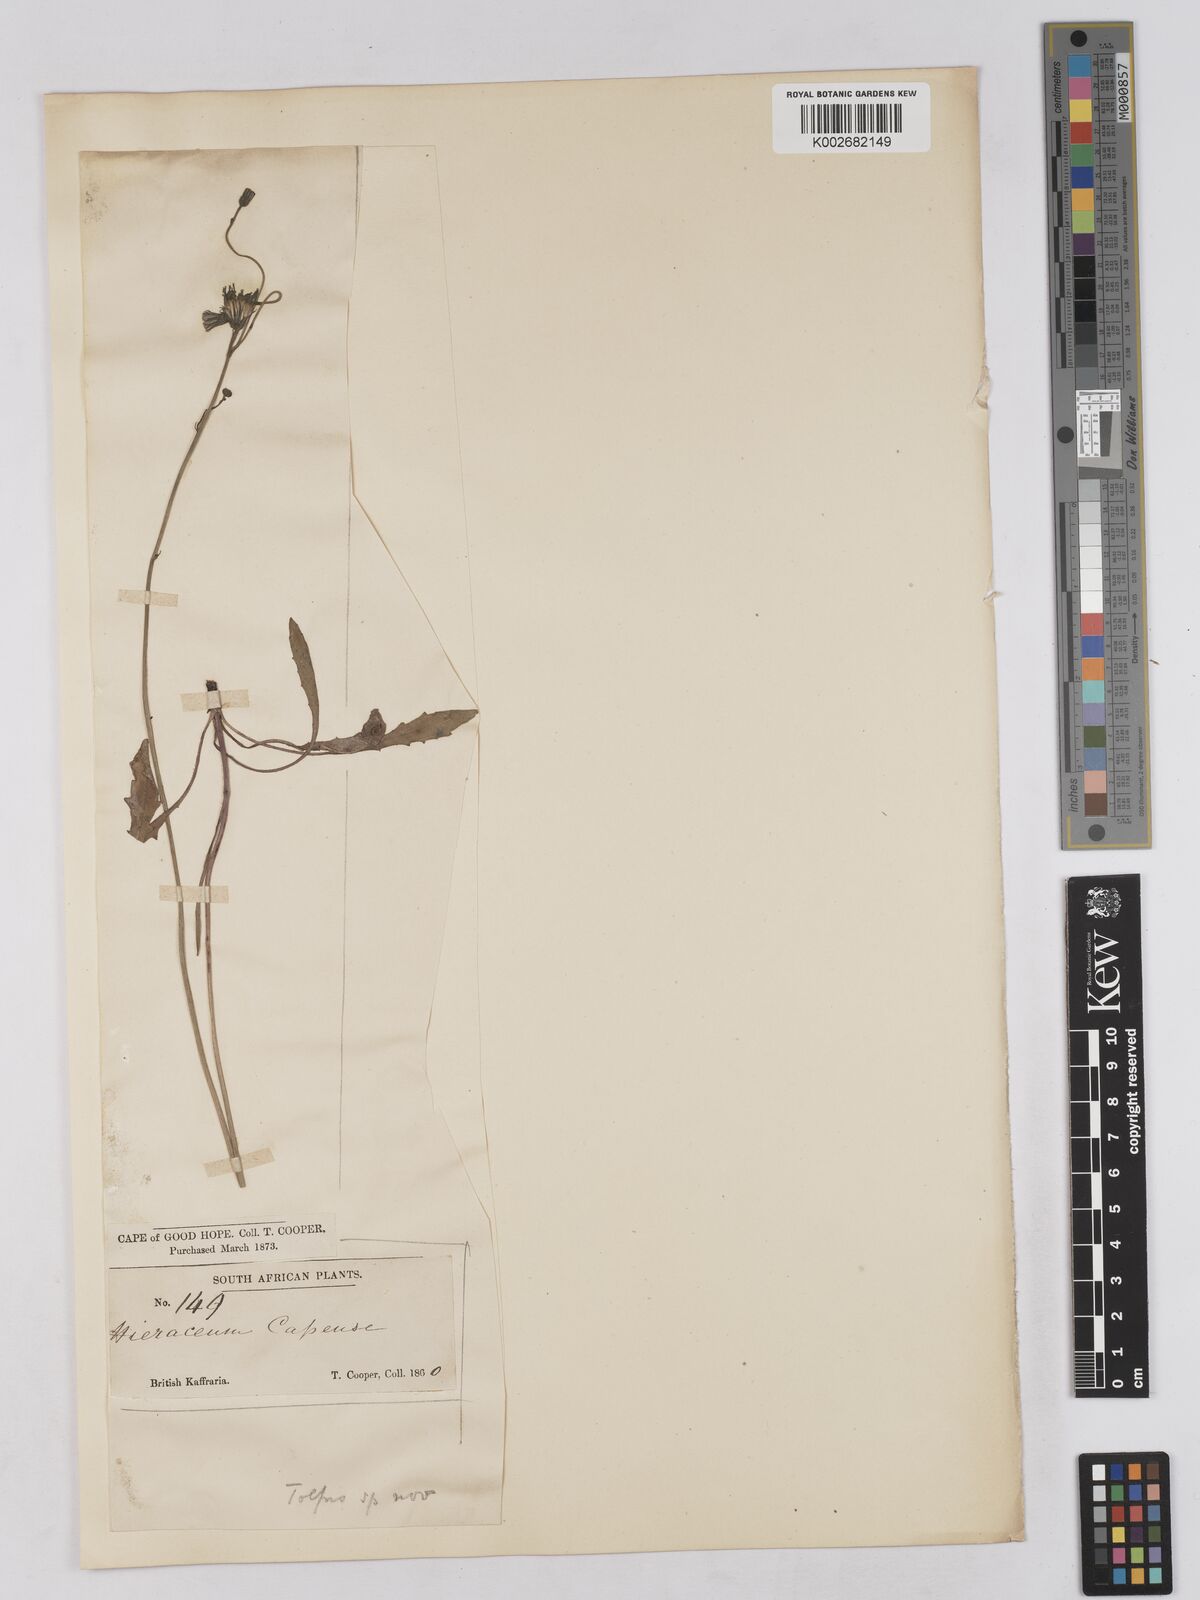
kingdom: Plantae
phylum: Tracheophyta
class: Magnoliopsida
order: Asterales
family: Asteraceae
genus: Tolpis
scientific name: Tolpis
